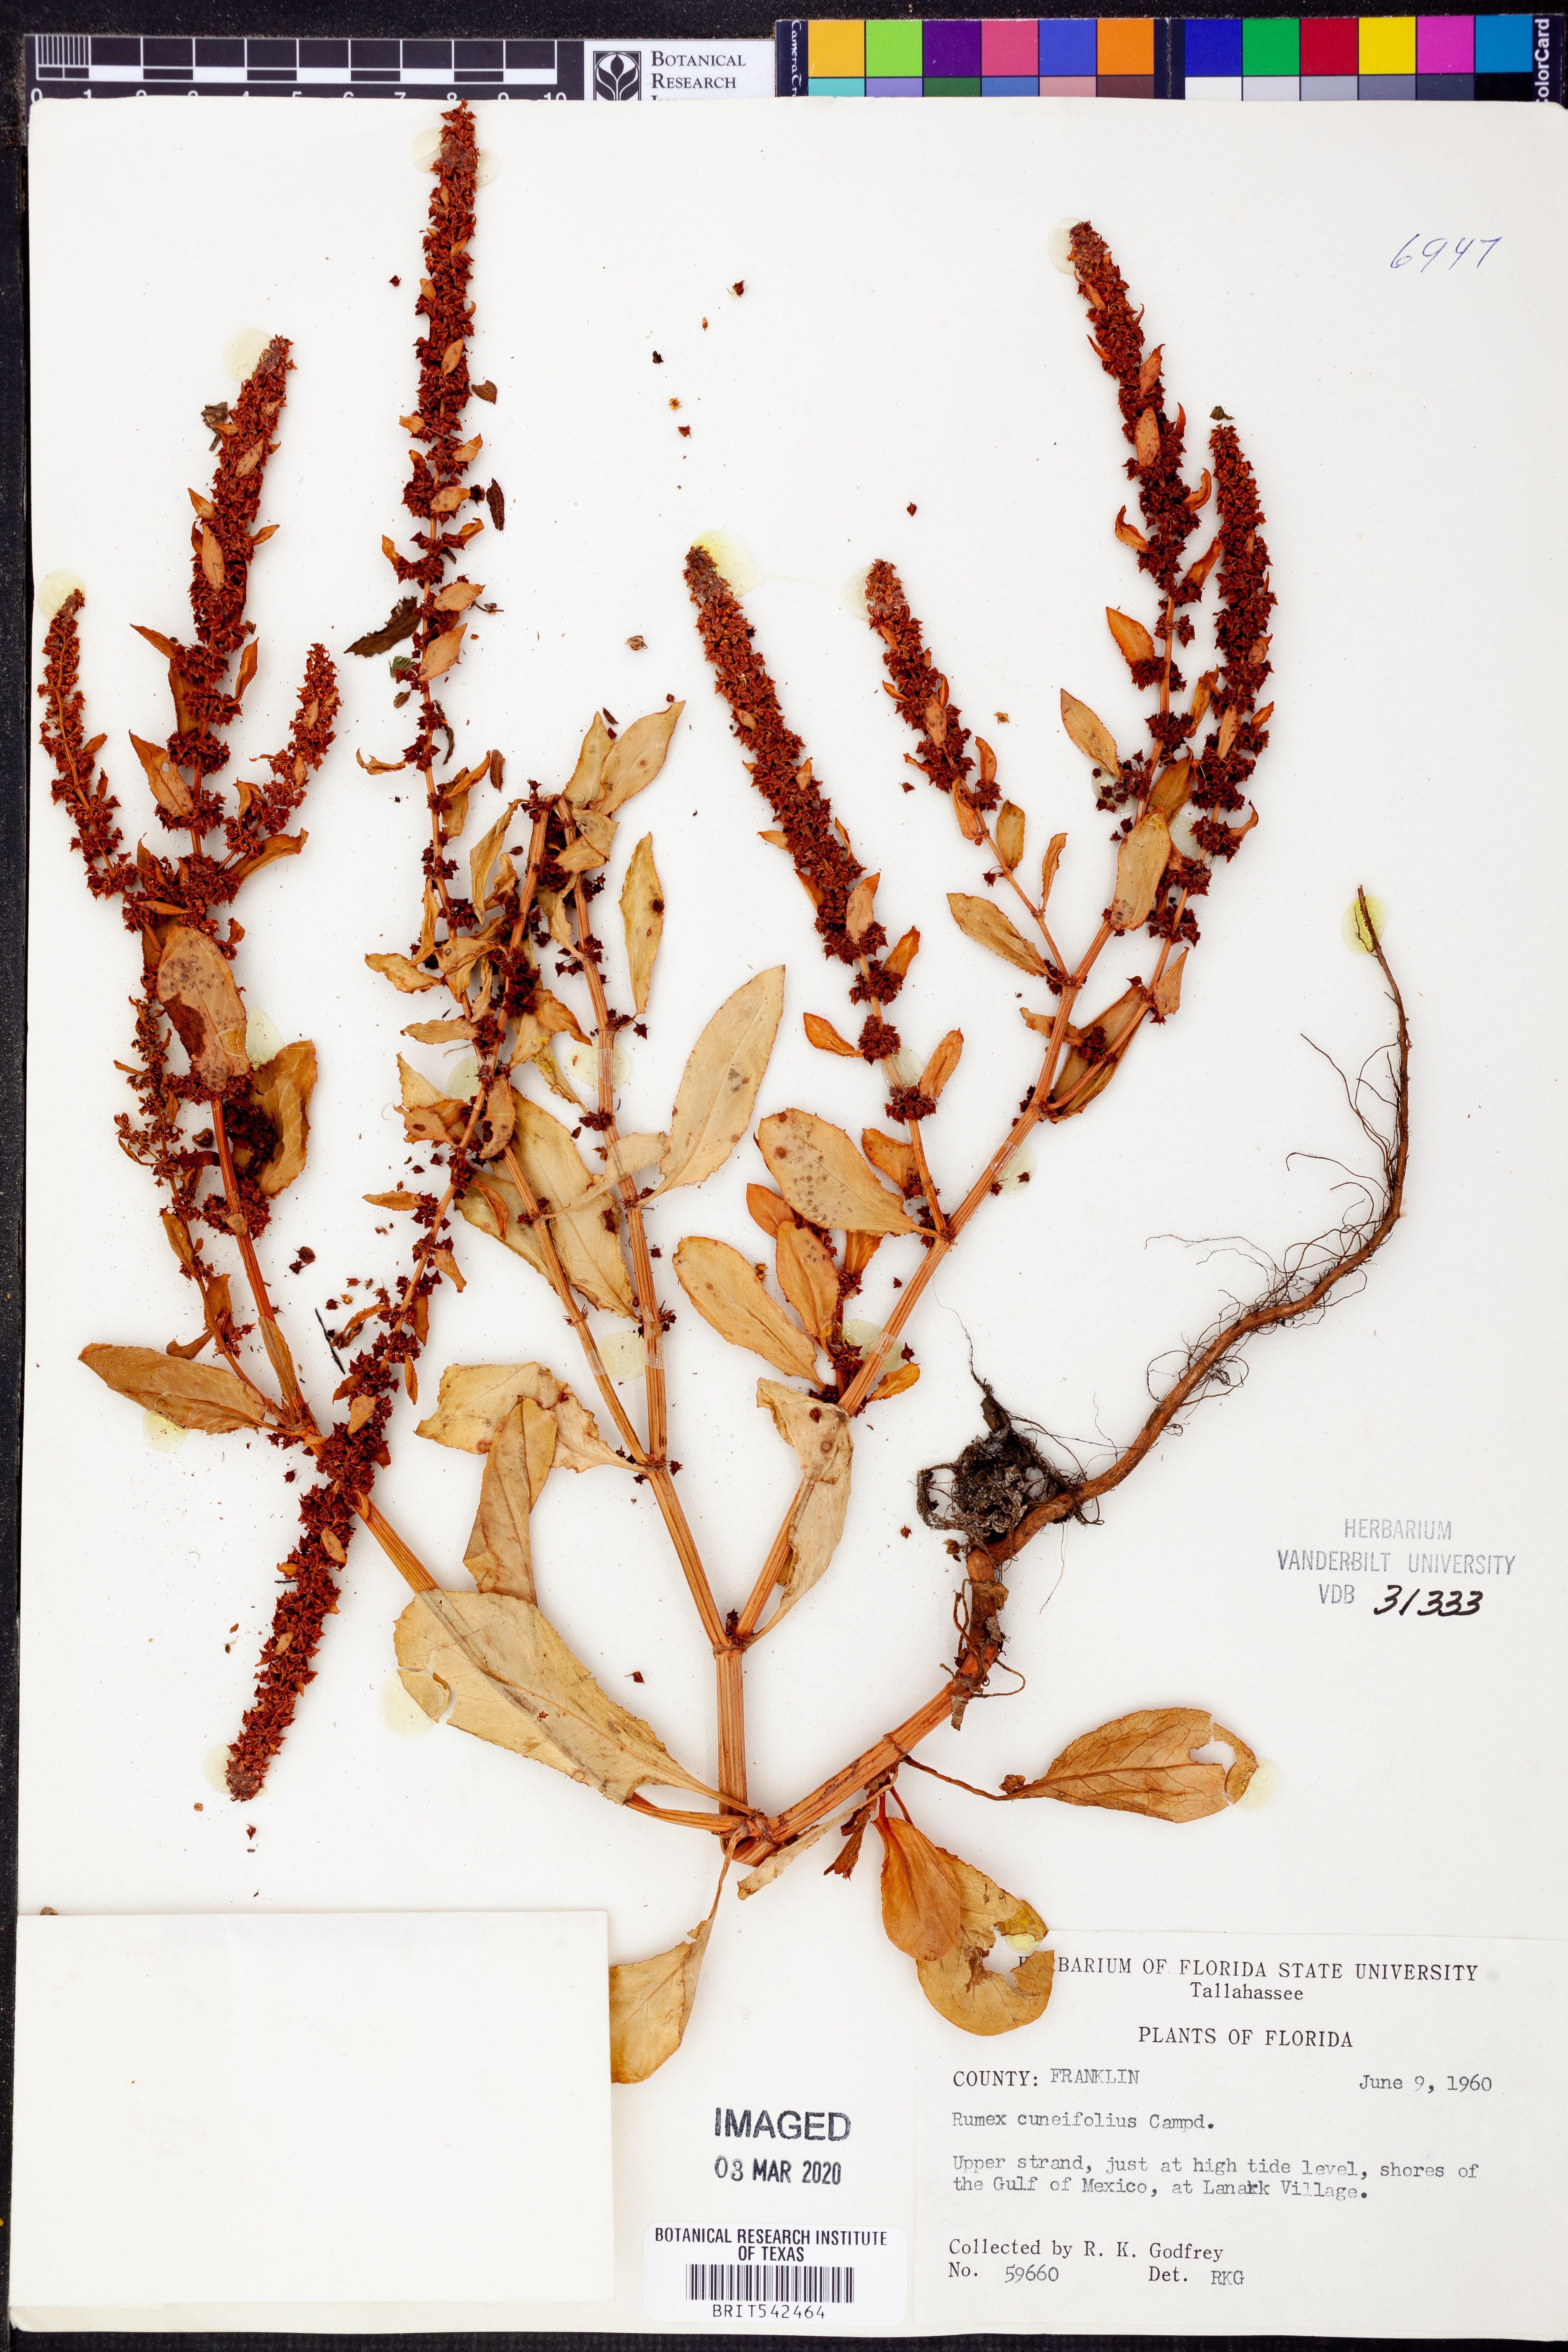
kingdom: Plantae
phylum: Tracheophyta
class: Magnoliopsida
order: Caryophyllales
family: Polygonaceae
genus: Rumex
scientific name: Rumex cuneifolius
